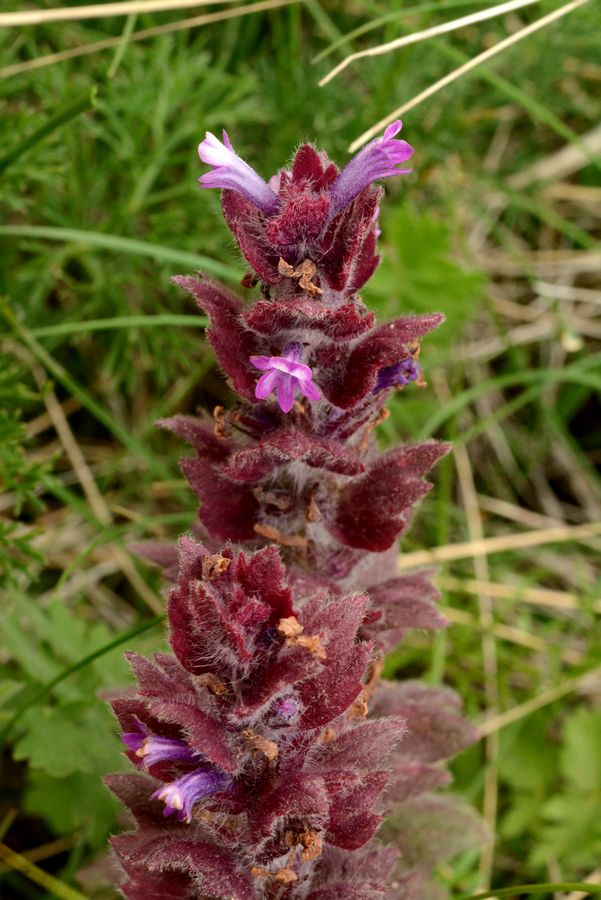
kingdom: Plantae
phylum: Tracheophyta
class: Magnoliopsida
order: Lamiales
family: Lamiaceae
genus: Ajuga
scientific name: Ajuga orientalis
